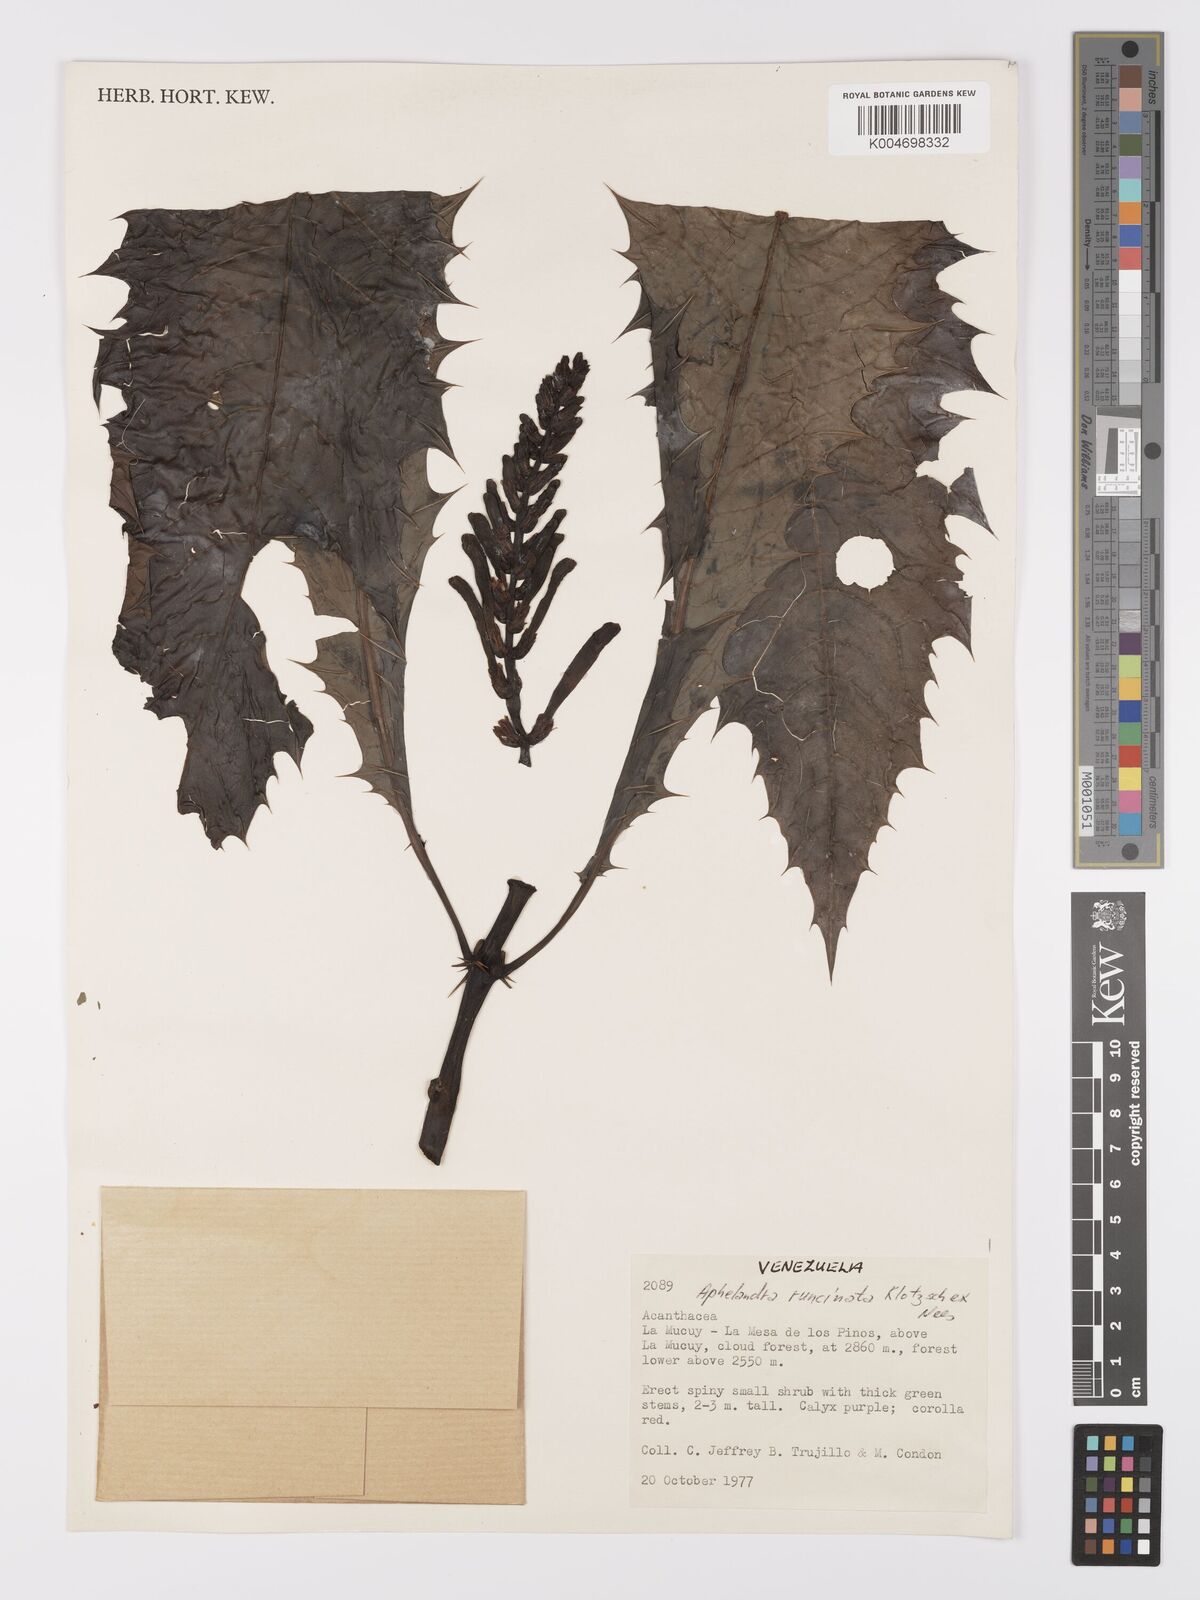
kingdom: Plantae
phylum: Tracheophyta
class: Magnoliopsida
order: Lamiales
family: Acanthaceae
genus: Aphelandra
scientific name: Aphelandra runcinata
